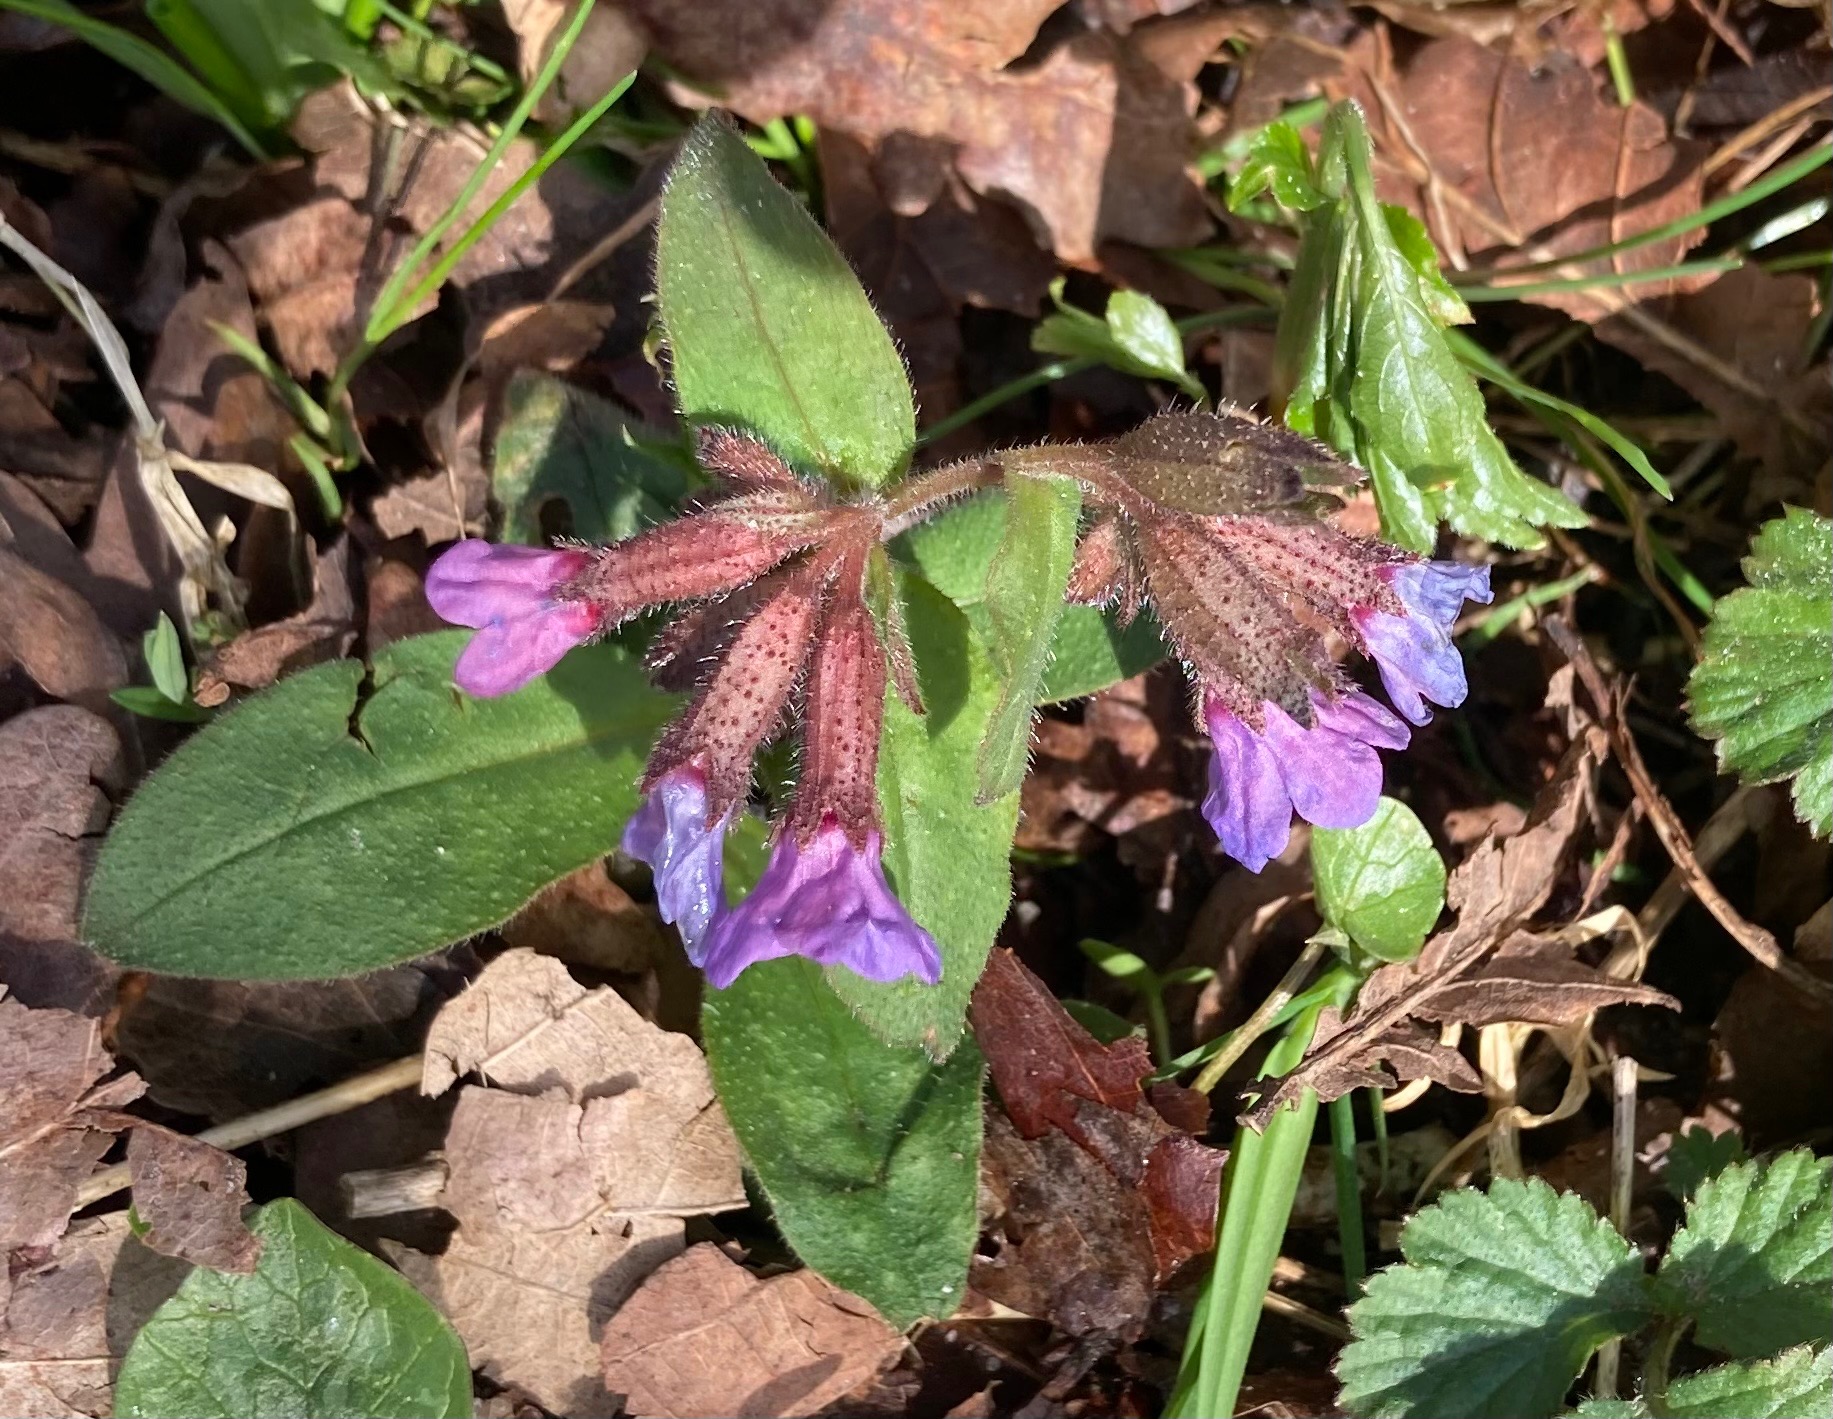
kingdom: Plantae
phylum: Tracheophyta
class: Magnoliopsida
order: Boraginales
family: Boraginaceae
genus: Pulmonaria
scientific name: Pulmonaria obscura
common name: Almindelig lungeurt
